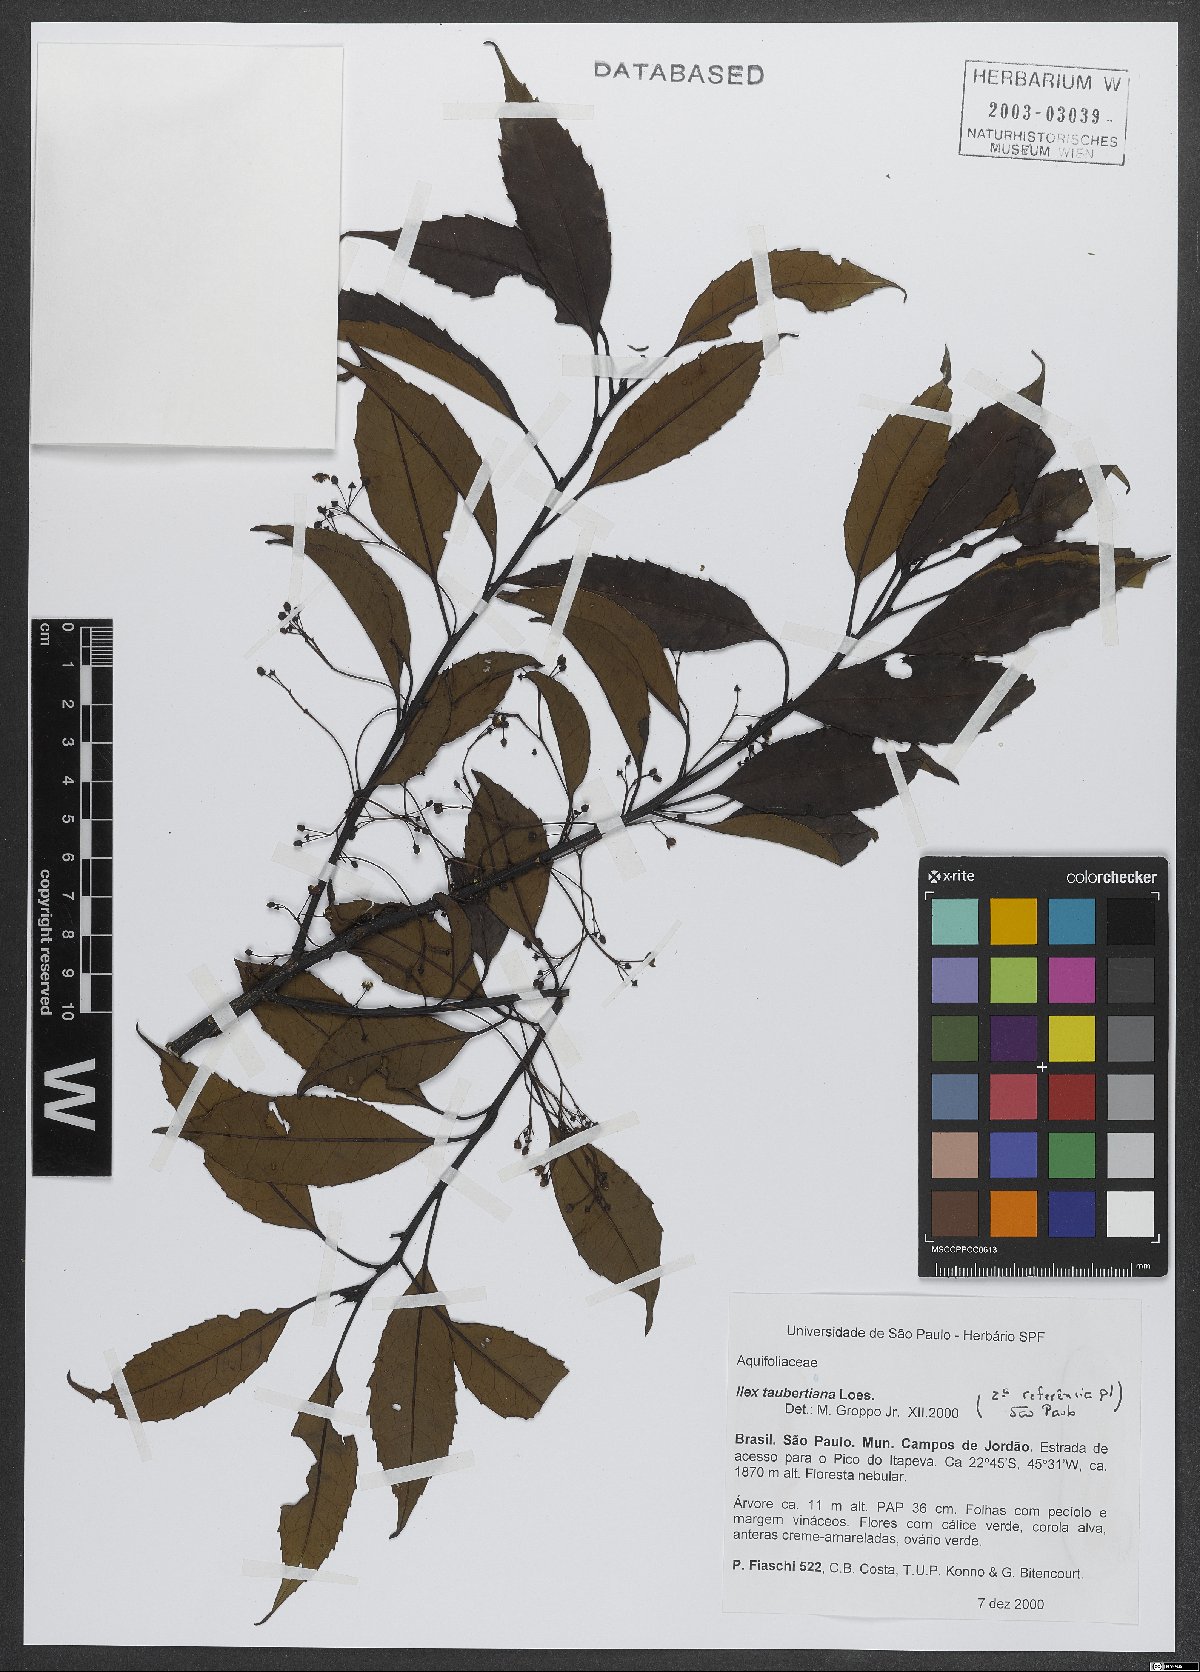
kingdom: Plantae
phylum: Tracheophyta
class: Magnoliopsida
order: Aquifoliales
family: Aquifoliaceae
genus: Ilex
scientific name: Ilex taubertiana
